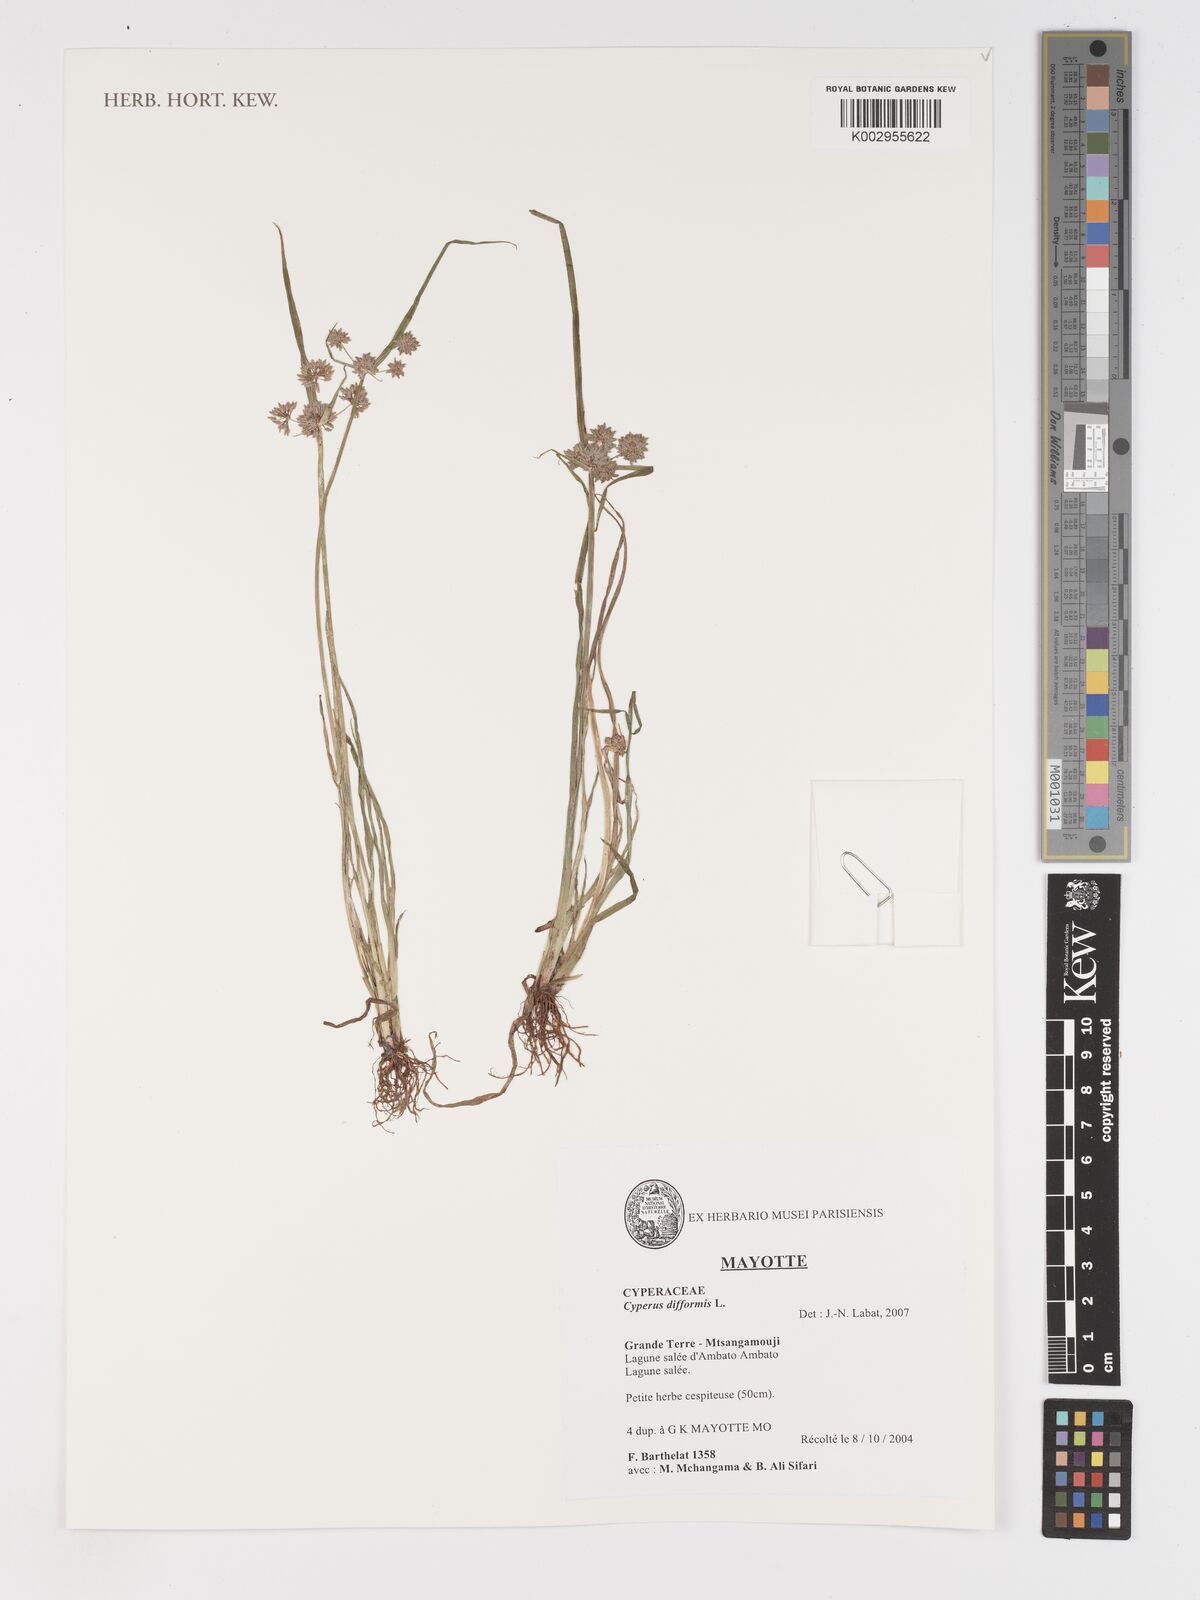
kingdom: Plantae
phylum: Tracheophyta
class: Liliopsida
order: Poales
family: Cyperaceae
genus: Cyperus
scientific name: Cyperus difformis
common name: Variable flatsedge
